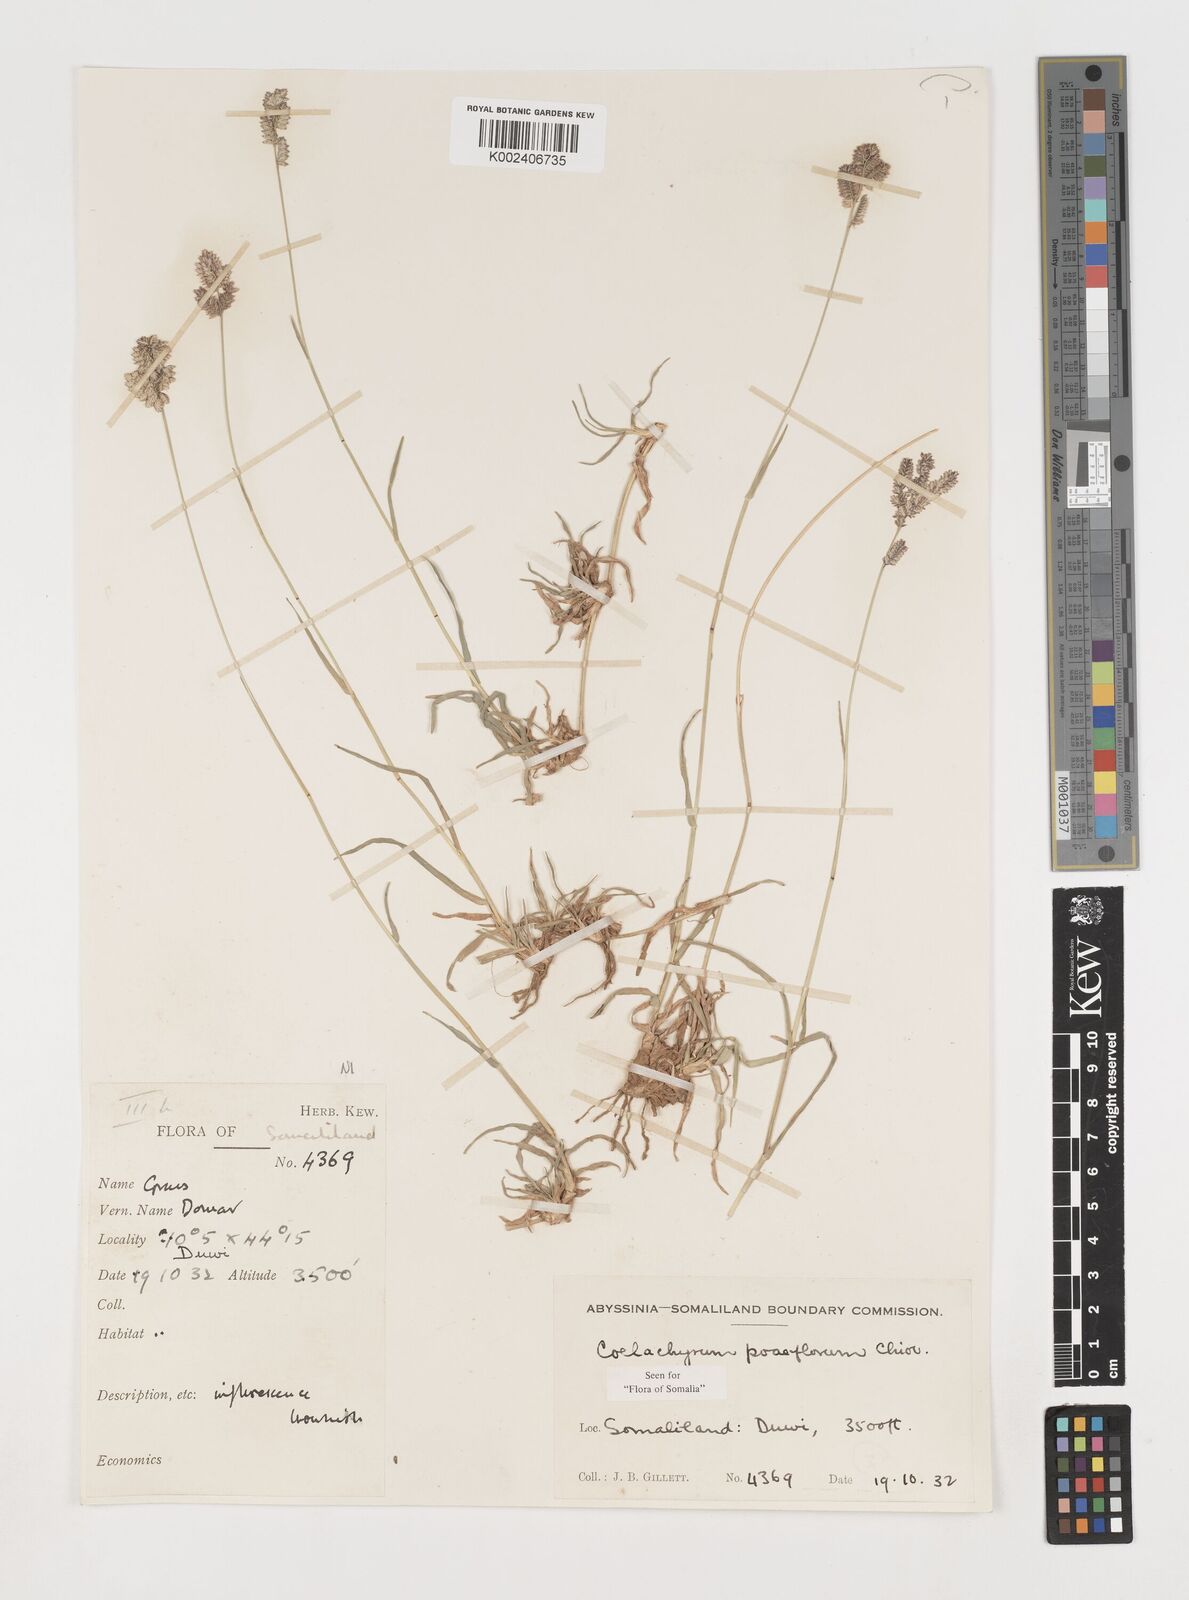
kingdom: Plantae
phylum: Tracheophyta
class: Liliopsida
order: Poales
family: Poaceae
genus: Coelachyrum
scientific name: Coelachyrum poiflorum
